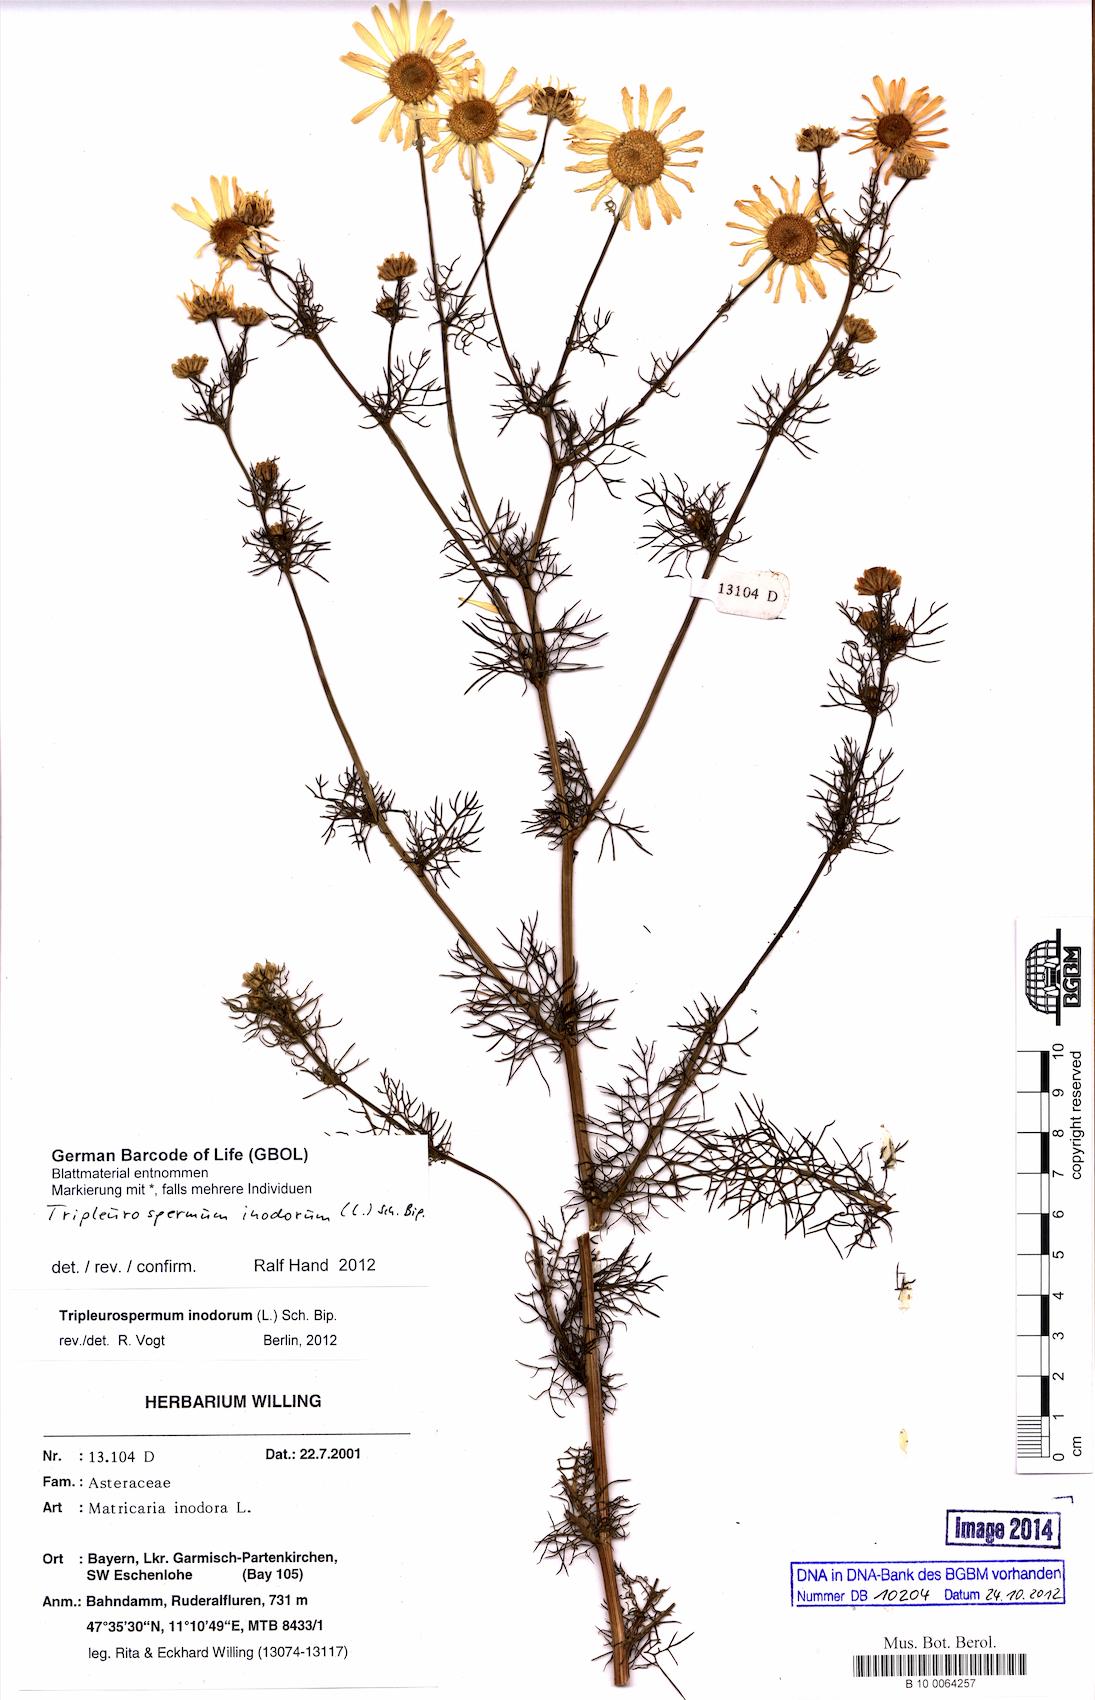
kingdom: Plantae
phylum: Tracheophyta
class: Magnoliopsida
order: Asterales
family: Asteraceae
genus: Tripleurospermum
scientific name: Tripleurospermum inodorum
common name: Scentless mayweed
